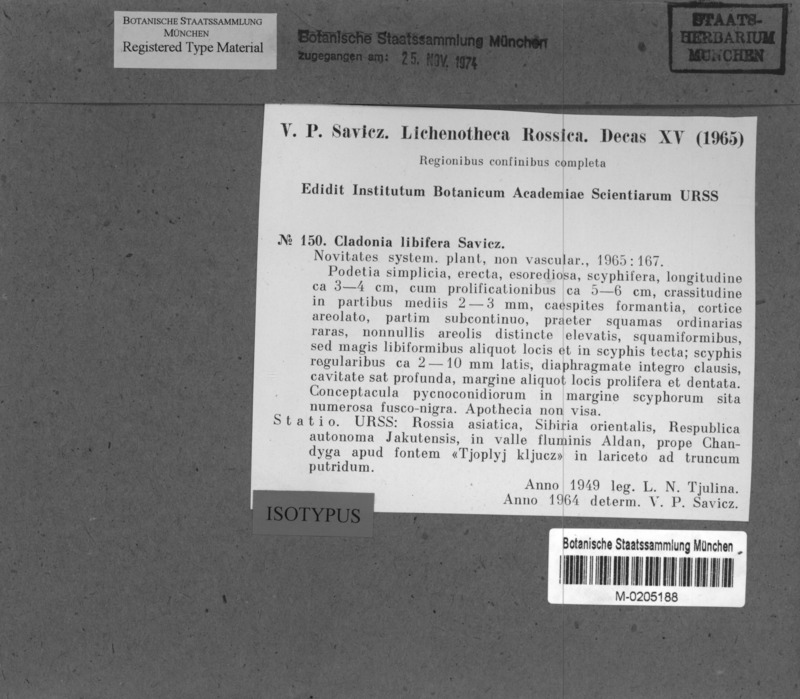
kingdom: Fungi
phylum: Ascomycota
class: Lecanoromycetes
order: Lecanorales
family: Cladoniaceae
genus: Cladonia
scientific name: Cladonia libifera
